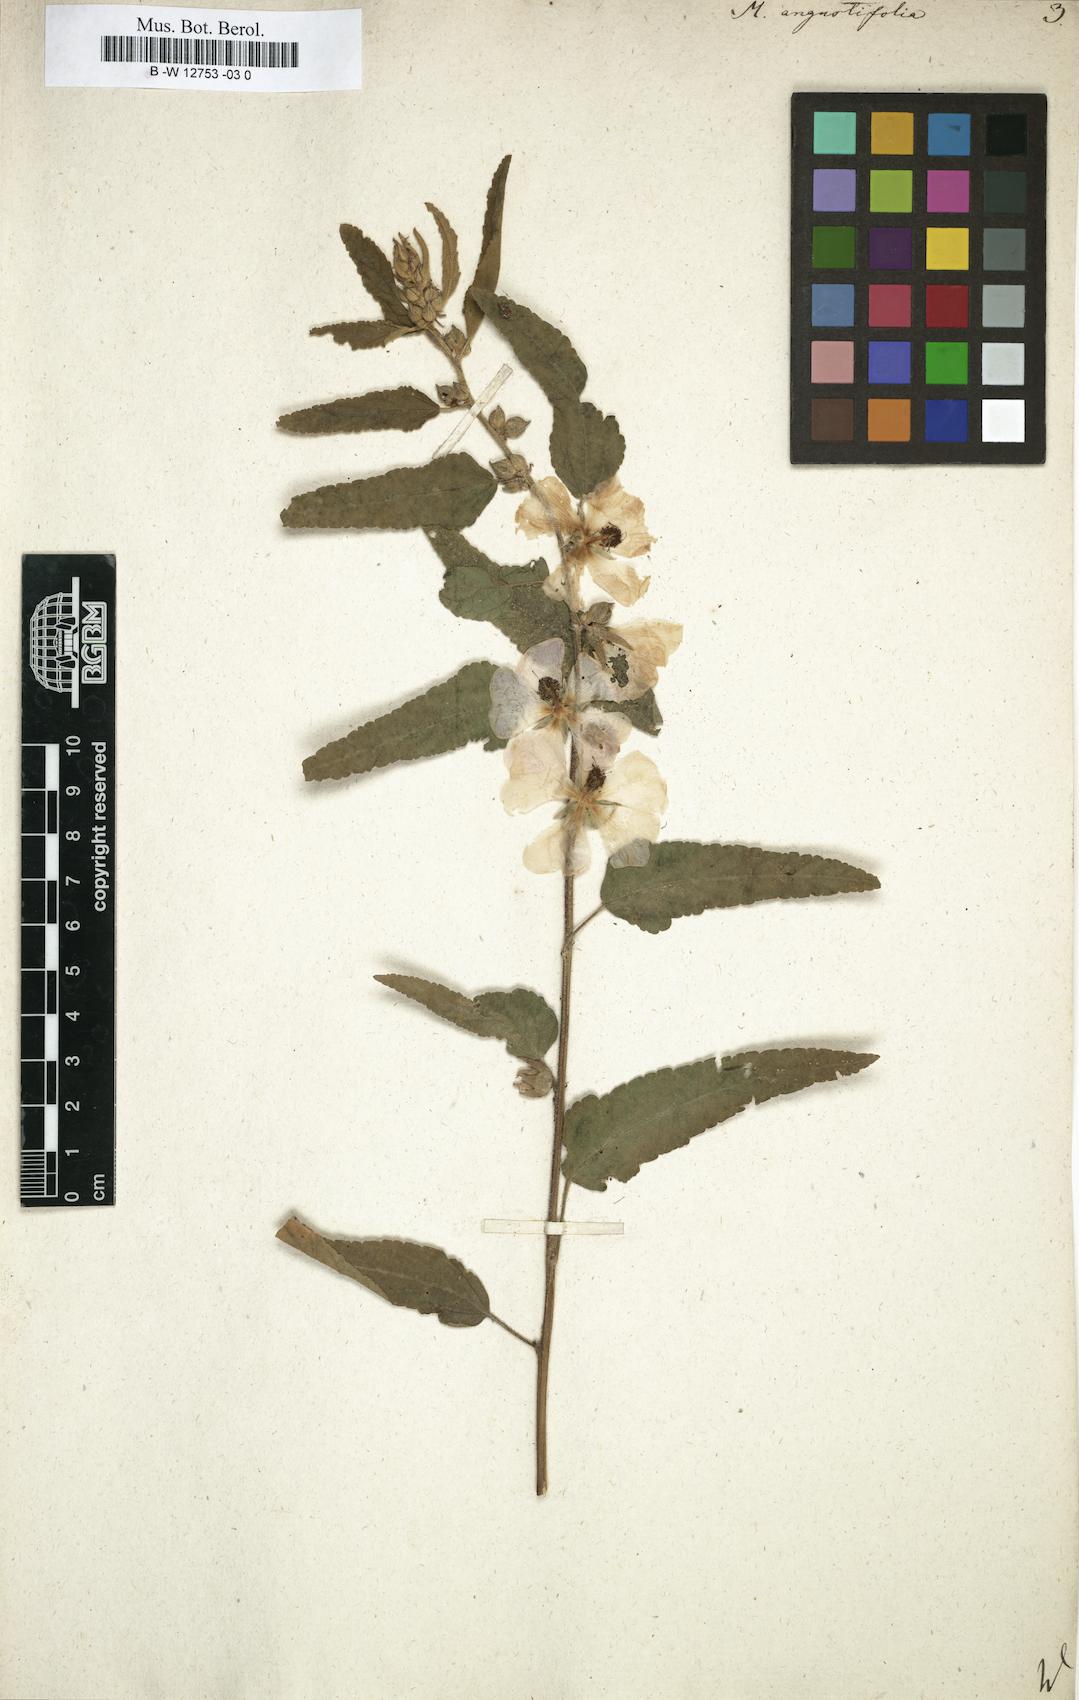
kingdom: Plantae
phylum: Tracheophyta
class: Magnoliopsida
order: Malvales
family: Malvaceae
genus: Sphaeralcea
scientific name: Sphaeralcea angustifolia
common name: Copper globe-mallow
